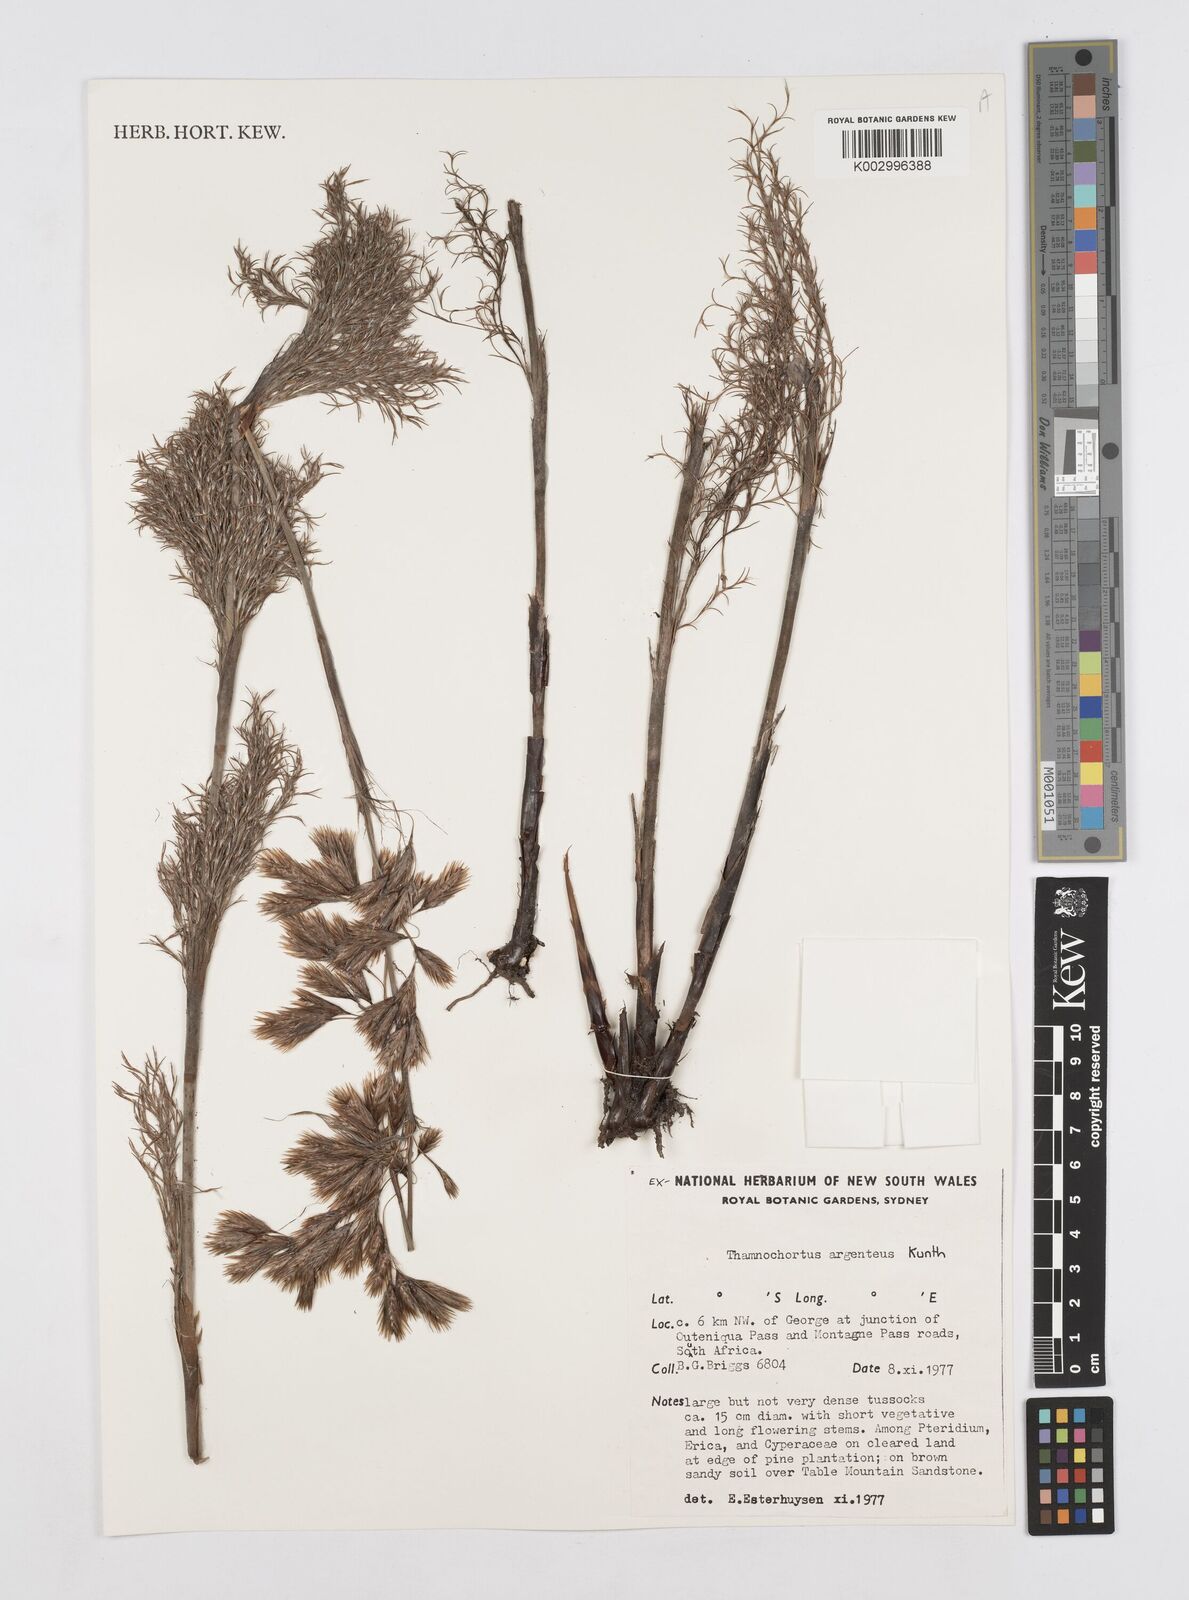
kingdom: Plantae
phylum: Tracheophyta
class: Liliopsida
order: Poales
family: Restionaceae
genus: Hypodiscus
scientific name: Hypodiscus argenteus
